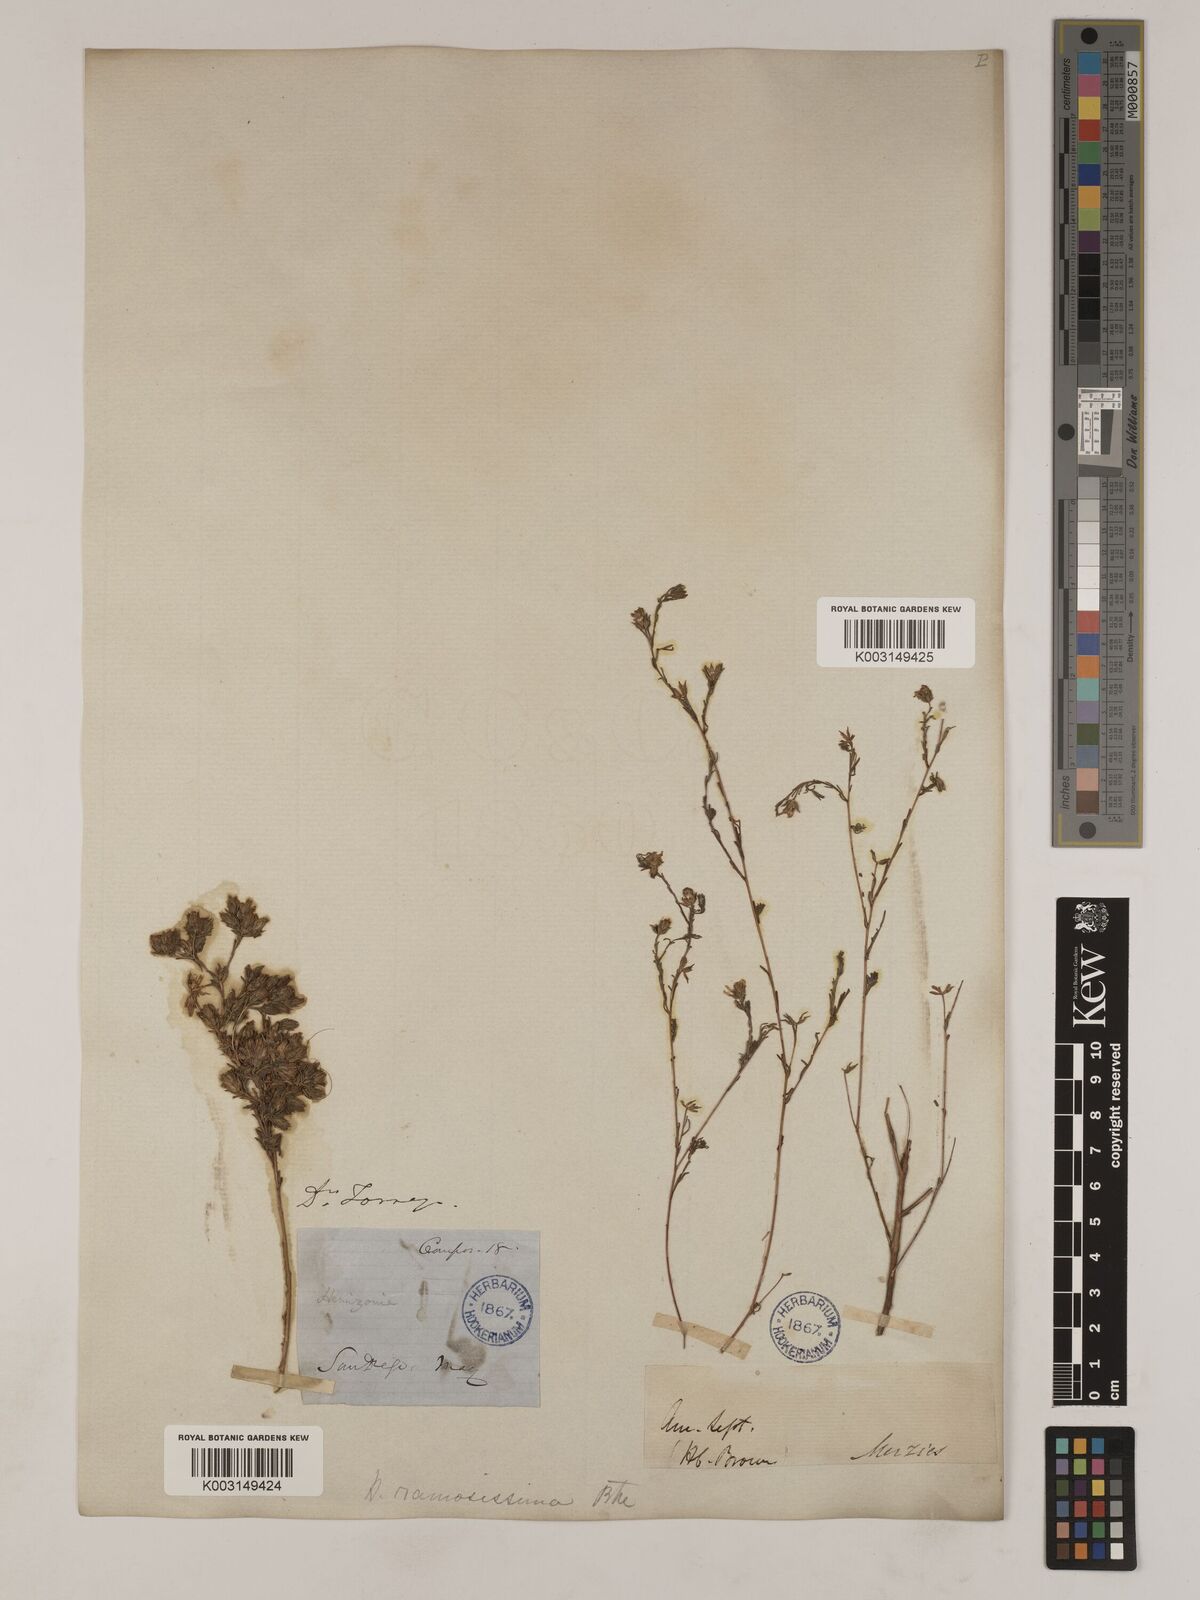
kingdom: Plantae
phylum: Tracheophyta
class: Magnoliopsida
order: Asterales
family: Asteraceae
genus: Deinandra
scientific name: Deinandra fasciculata
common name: Clustered tarweed
